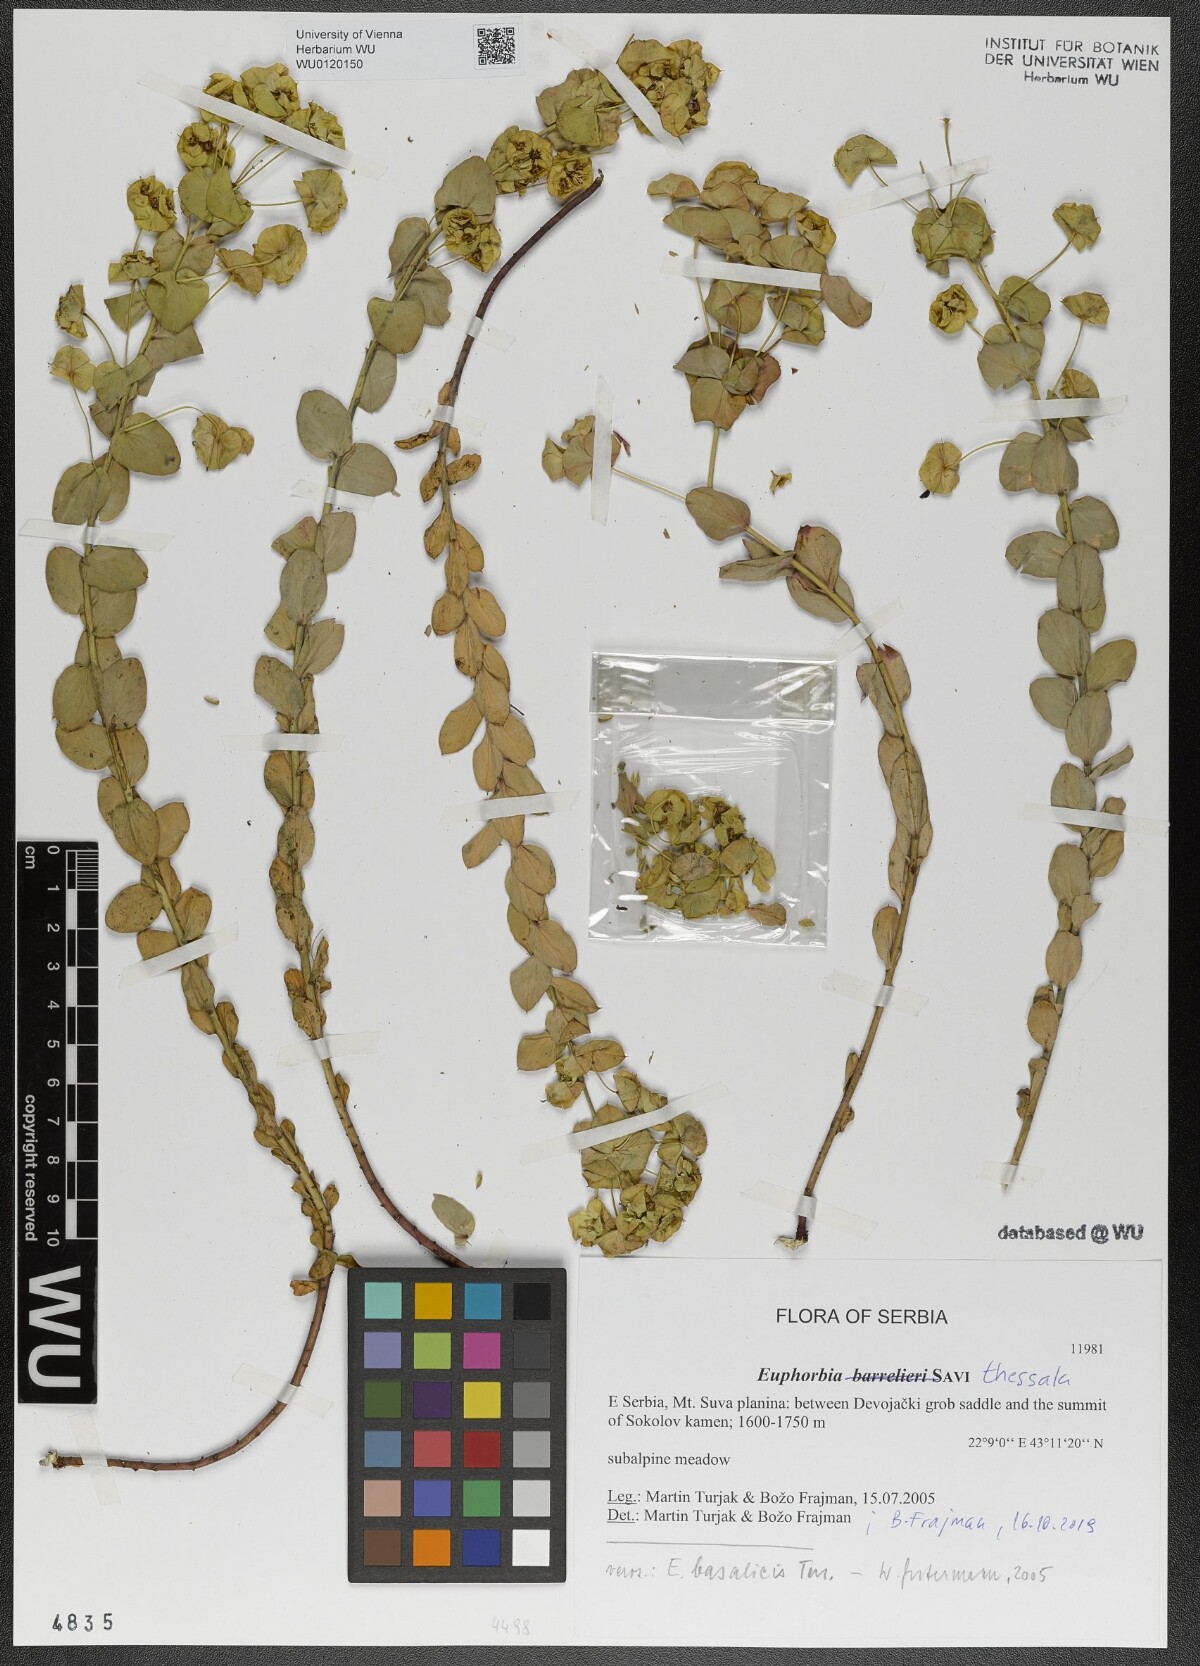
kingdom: Plantae
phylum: Tracheophyta
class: Magnoliopsida
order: Malpighiales
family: Euphorbiaceae
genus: Euphorbia
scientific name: Euphorbia barrelieri
